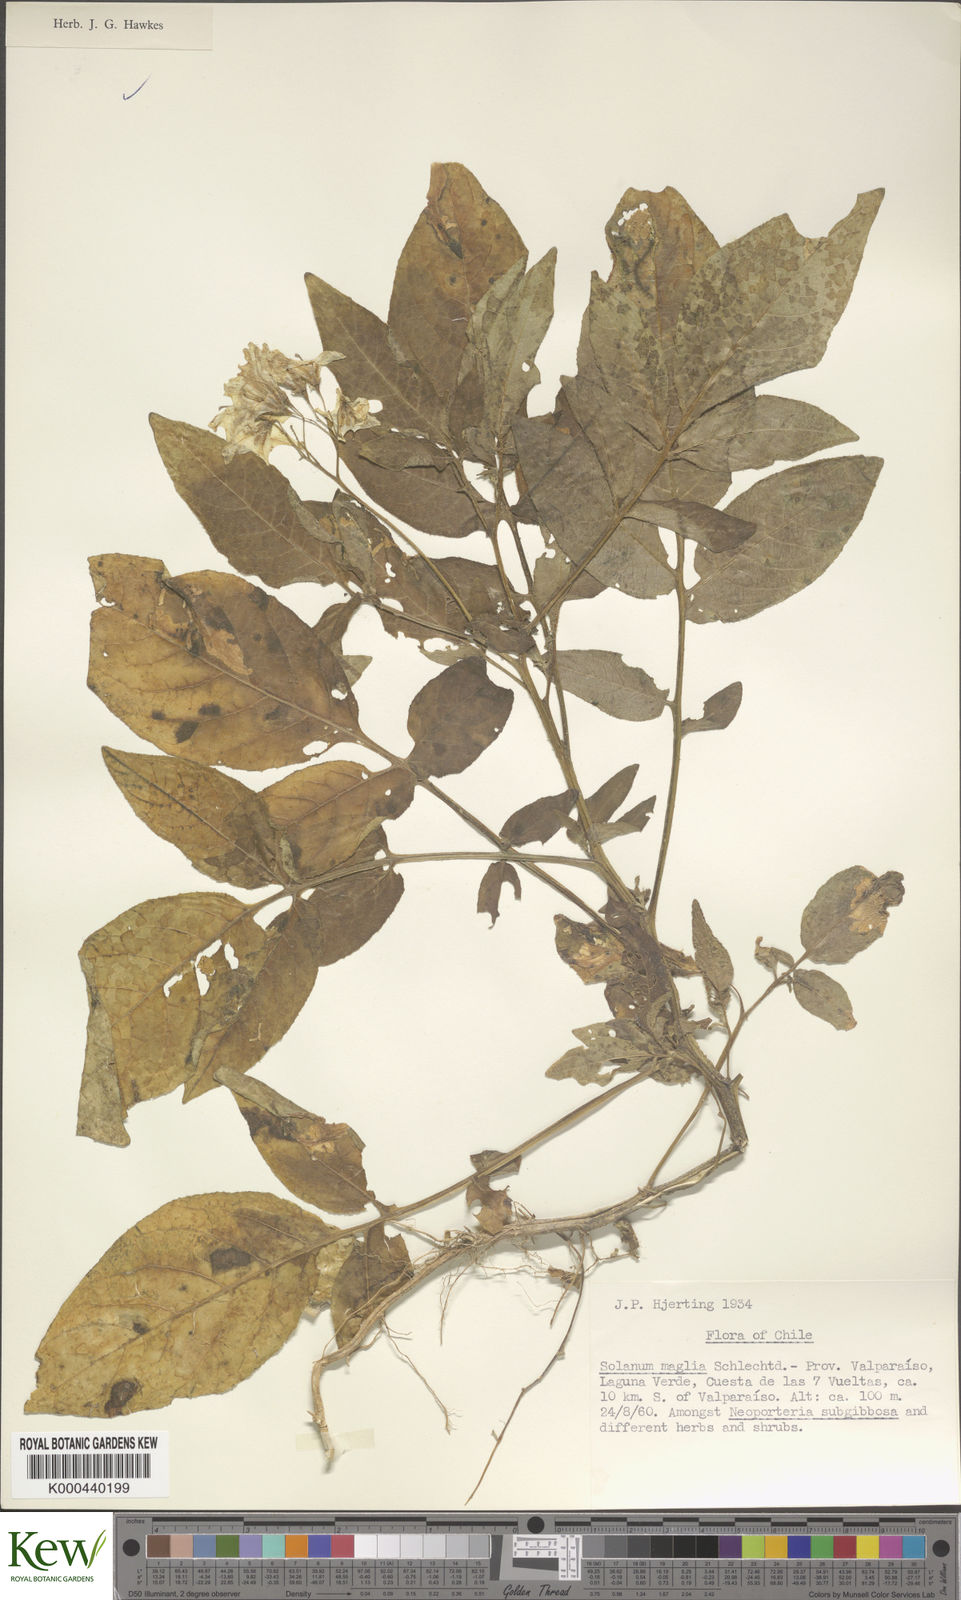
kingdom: Plantae
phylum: Tracheophyta
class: Magnoliopsida
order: Solanales
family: Solanaceae
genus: Solanum
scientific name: Solanum maglia
